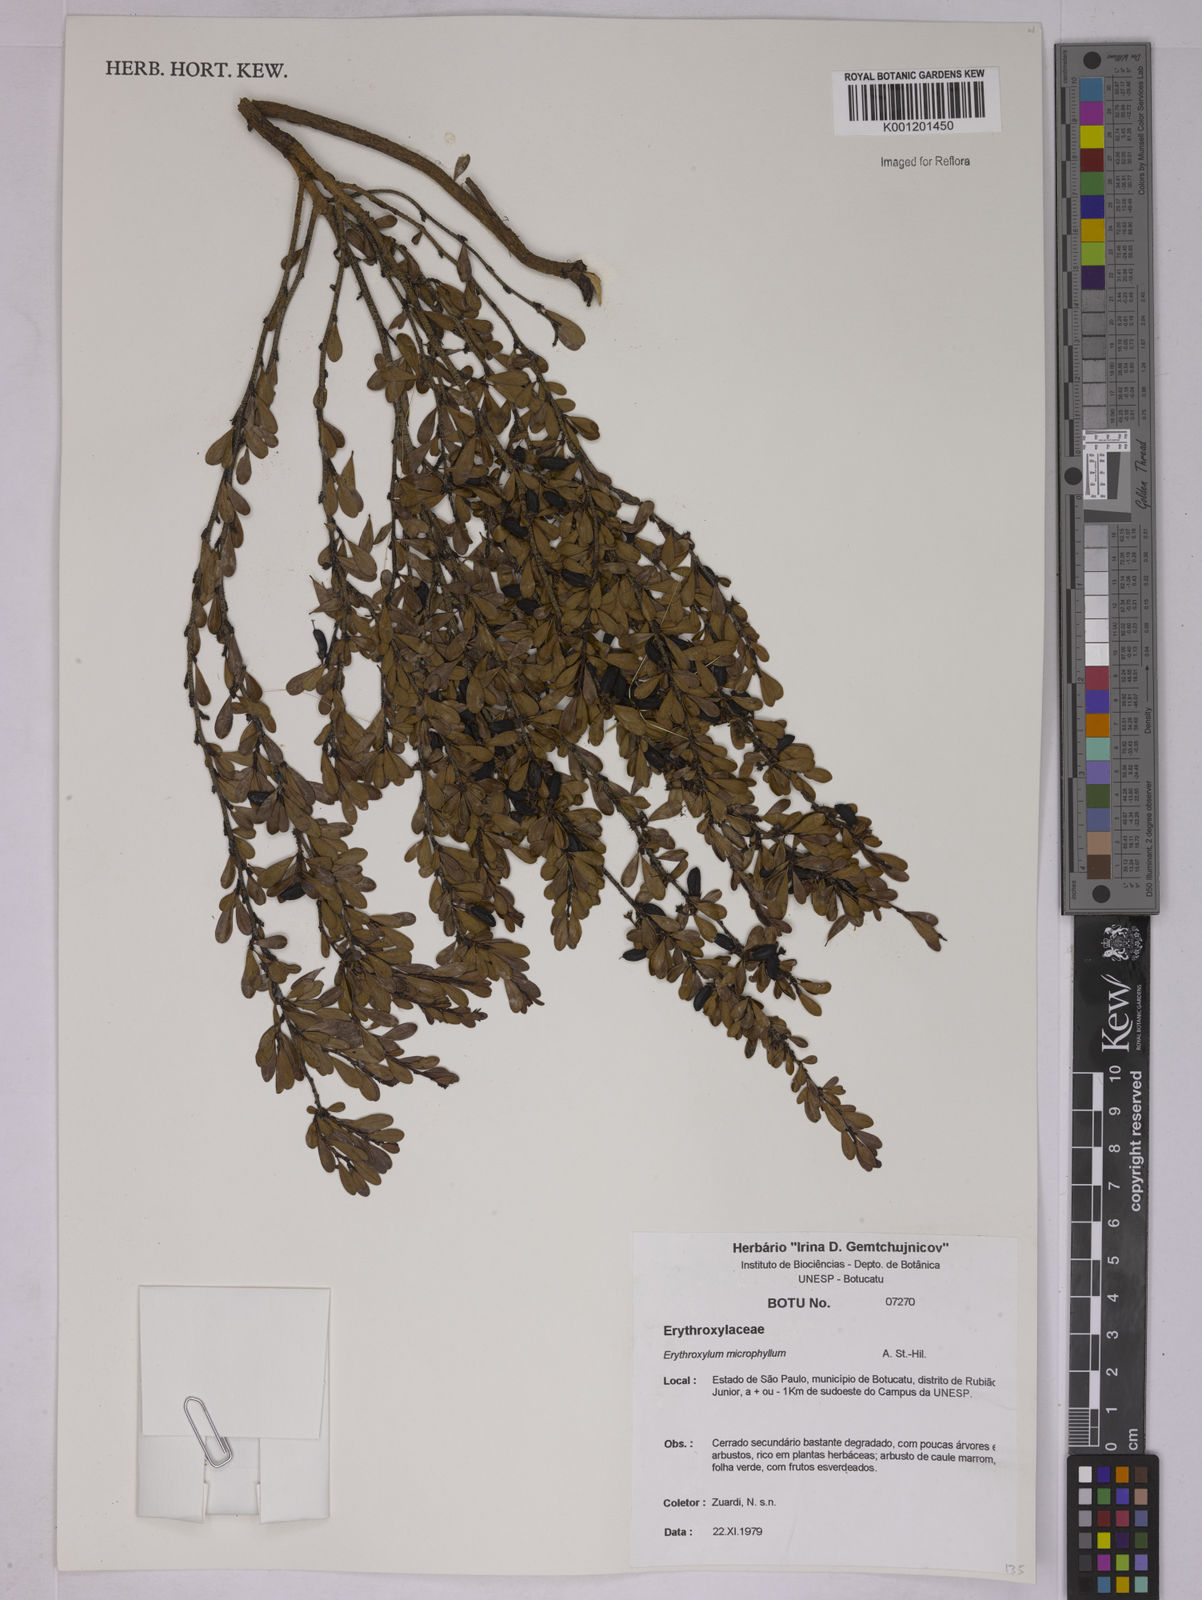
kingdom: Plantae
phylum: Tracheophyta
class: Magnoliopsida
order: Malpighiales
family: Erythroxylaceae
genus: Erythroxylum
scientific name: Erythroxylum microphyllum
